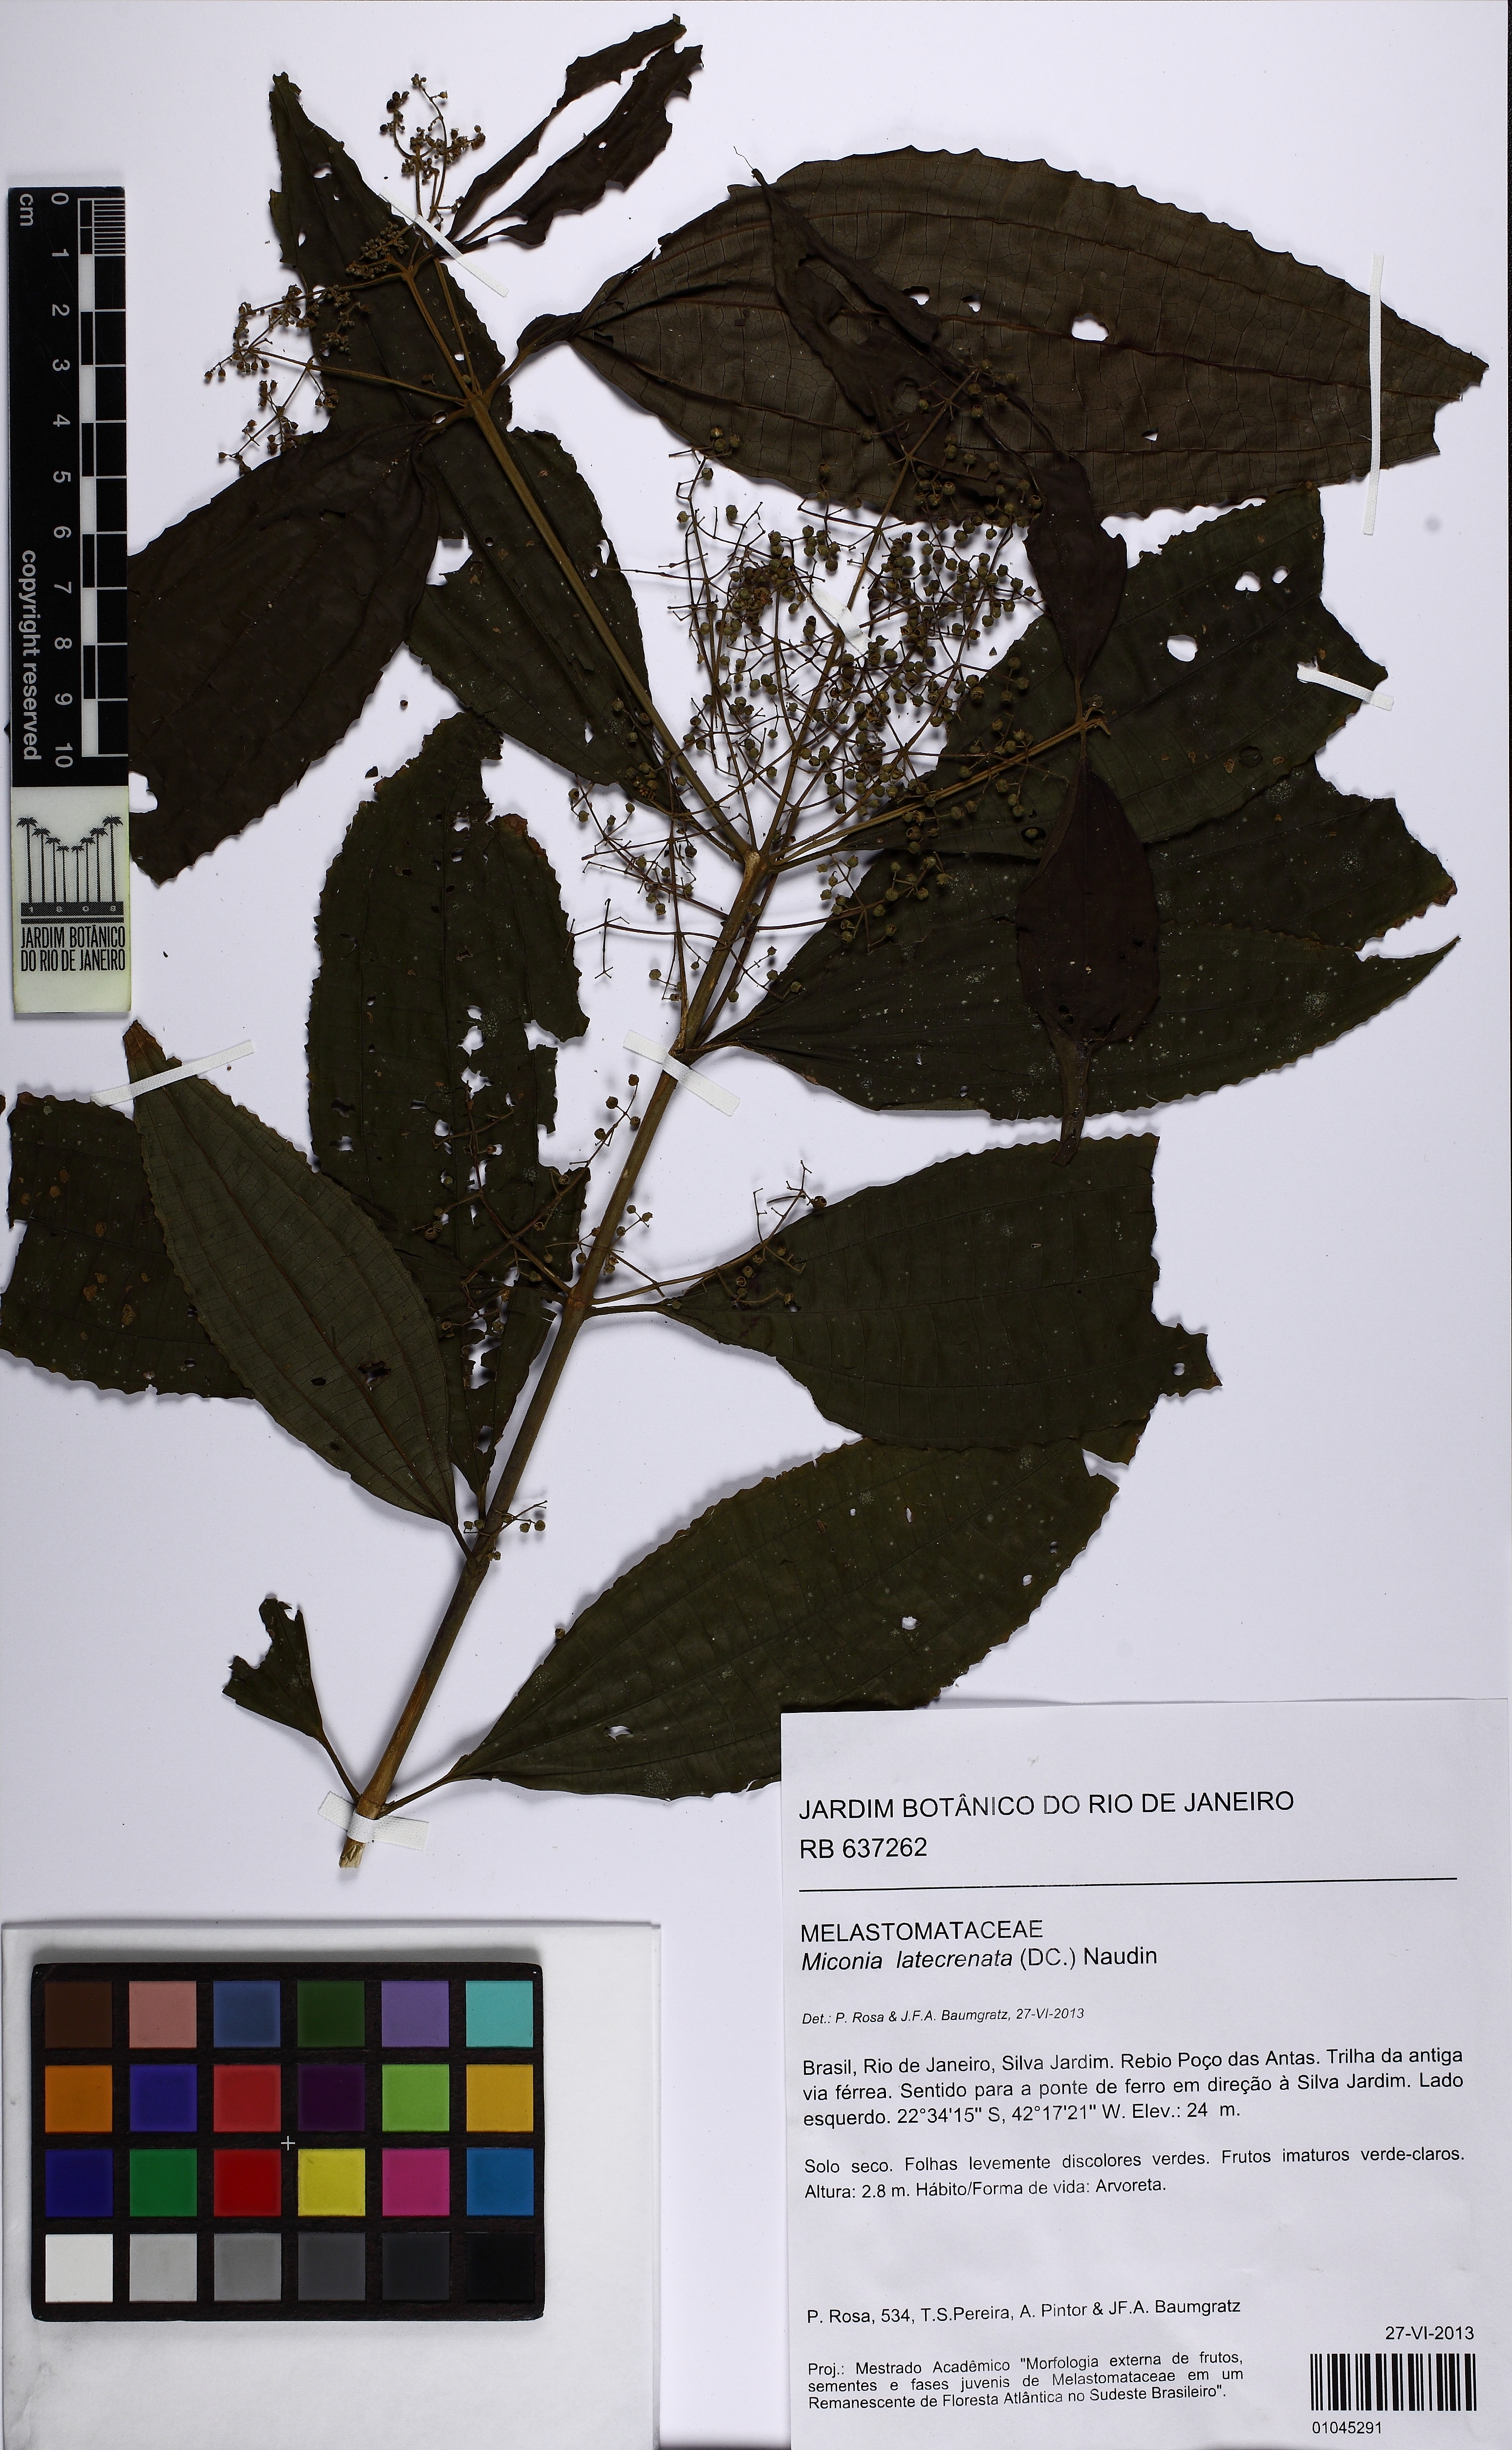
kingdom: Plantae
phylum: Tracheophyta
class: Magnoliopsida
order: Myrtales
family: Melastomataceae
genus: Miconia
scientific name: Miconia latecrenata
